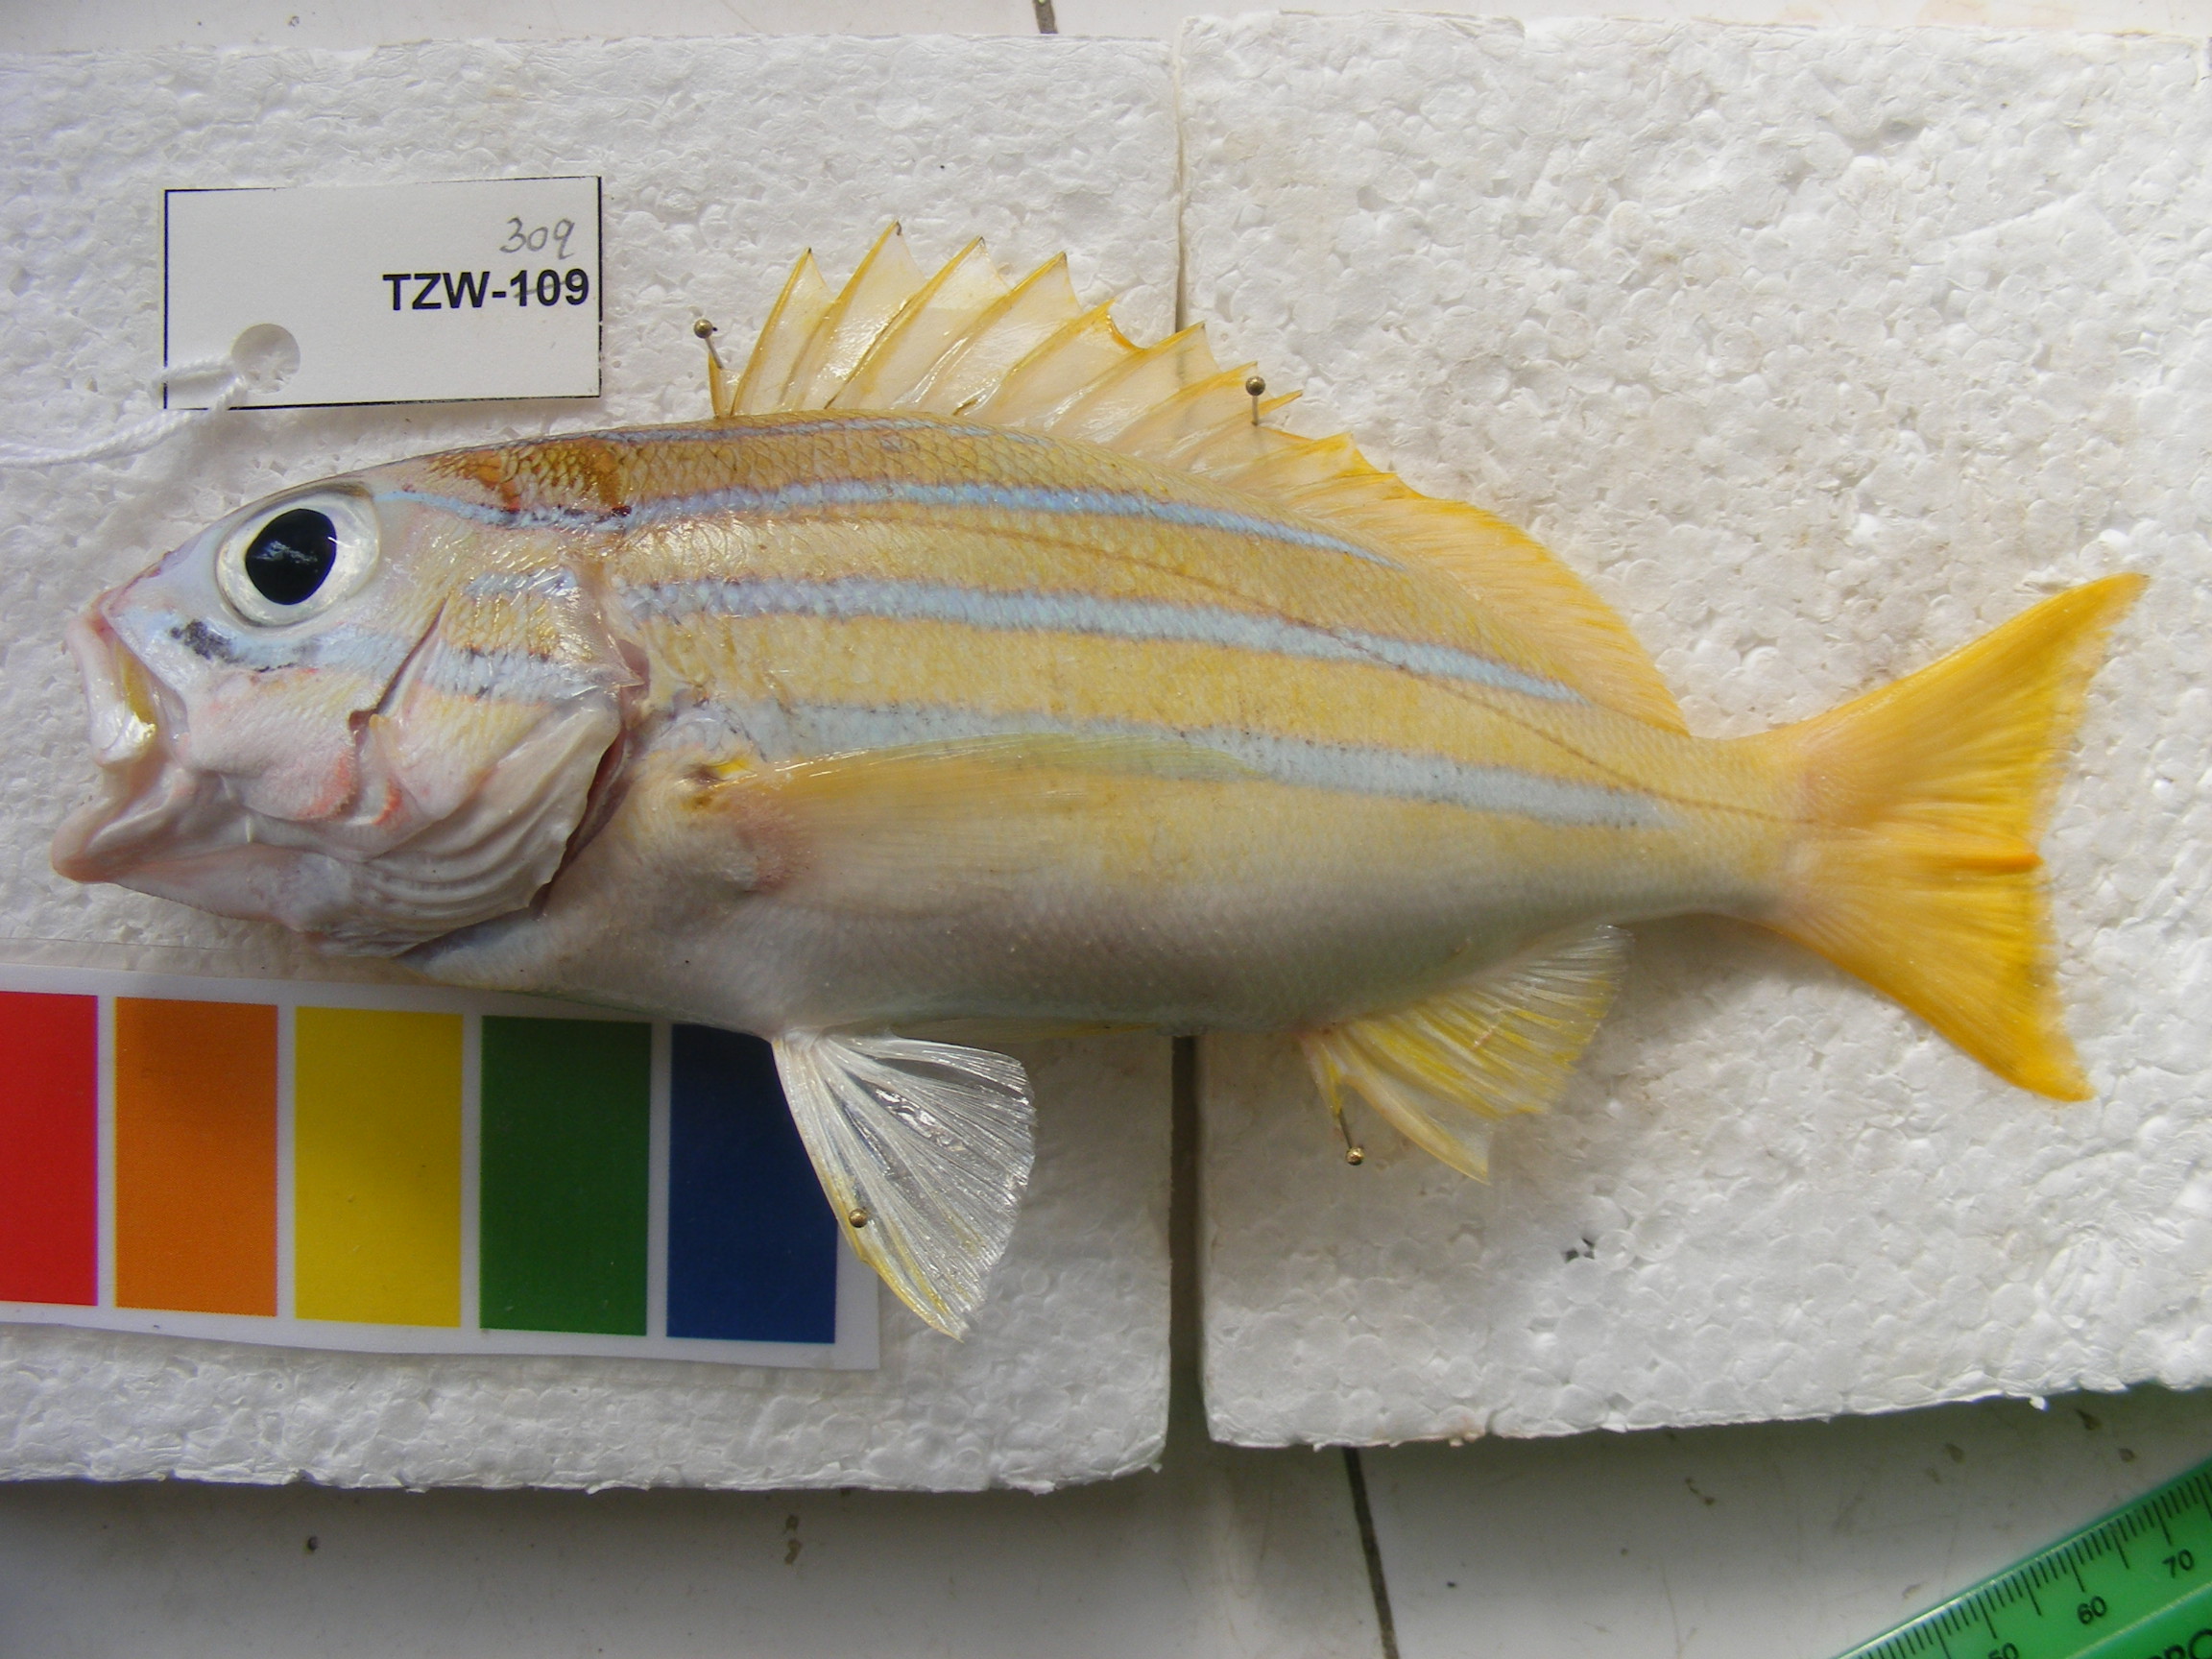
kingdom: Animalia
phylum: Chordata
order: Perciformes
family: Lutjanidae
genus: Lutjanus
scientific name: Lutjanus kasmira
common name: Common bluestripe snapper
